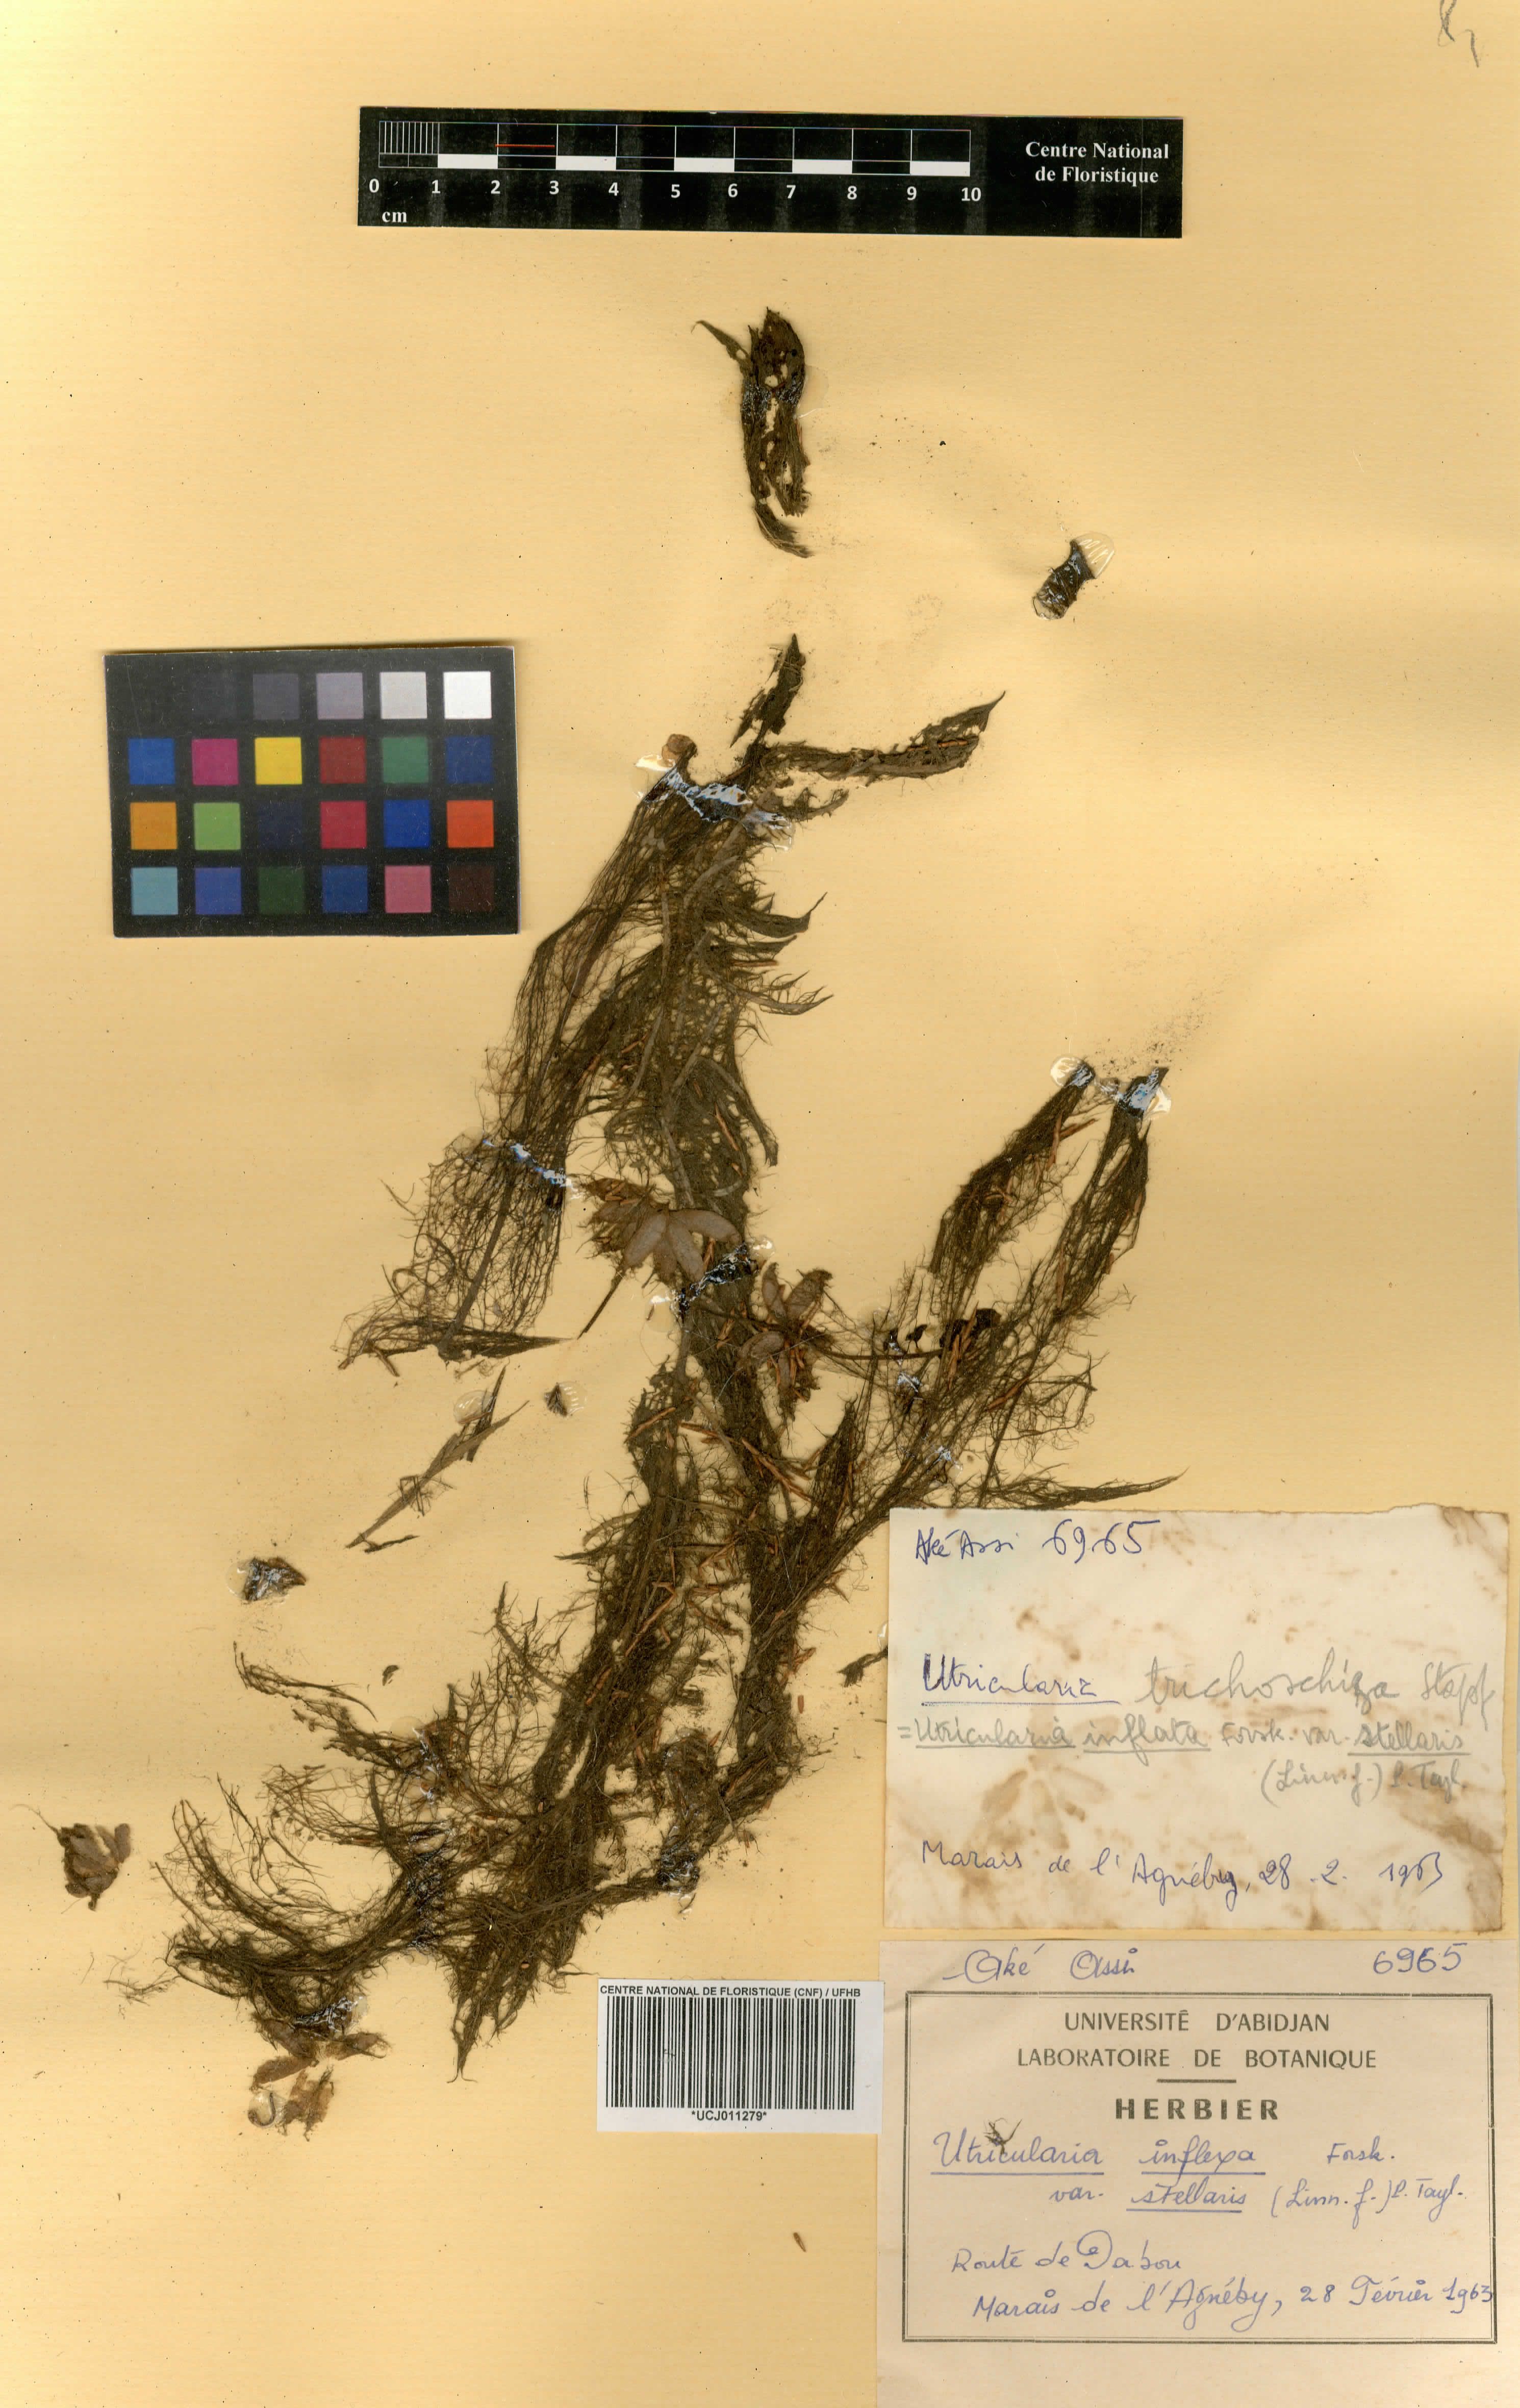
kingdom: Plantae
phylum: Tracheophyta
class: Magnoliopsida
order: Lamiales
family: Lentibulariaceae
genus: Utricularia
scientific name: Utricularia inflexa
